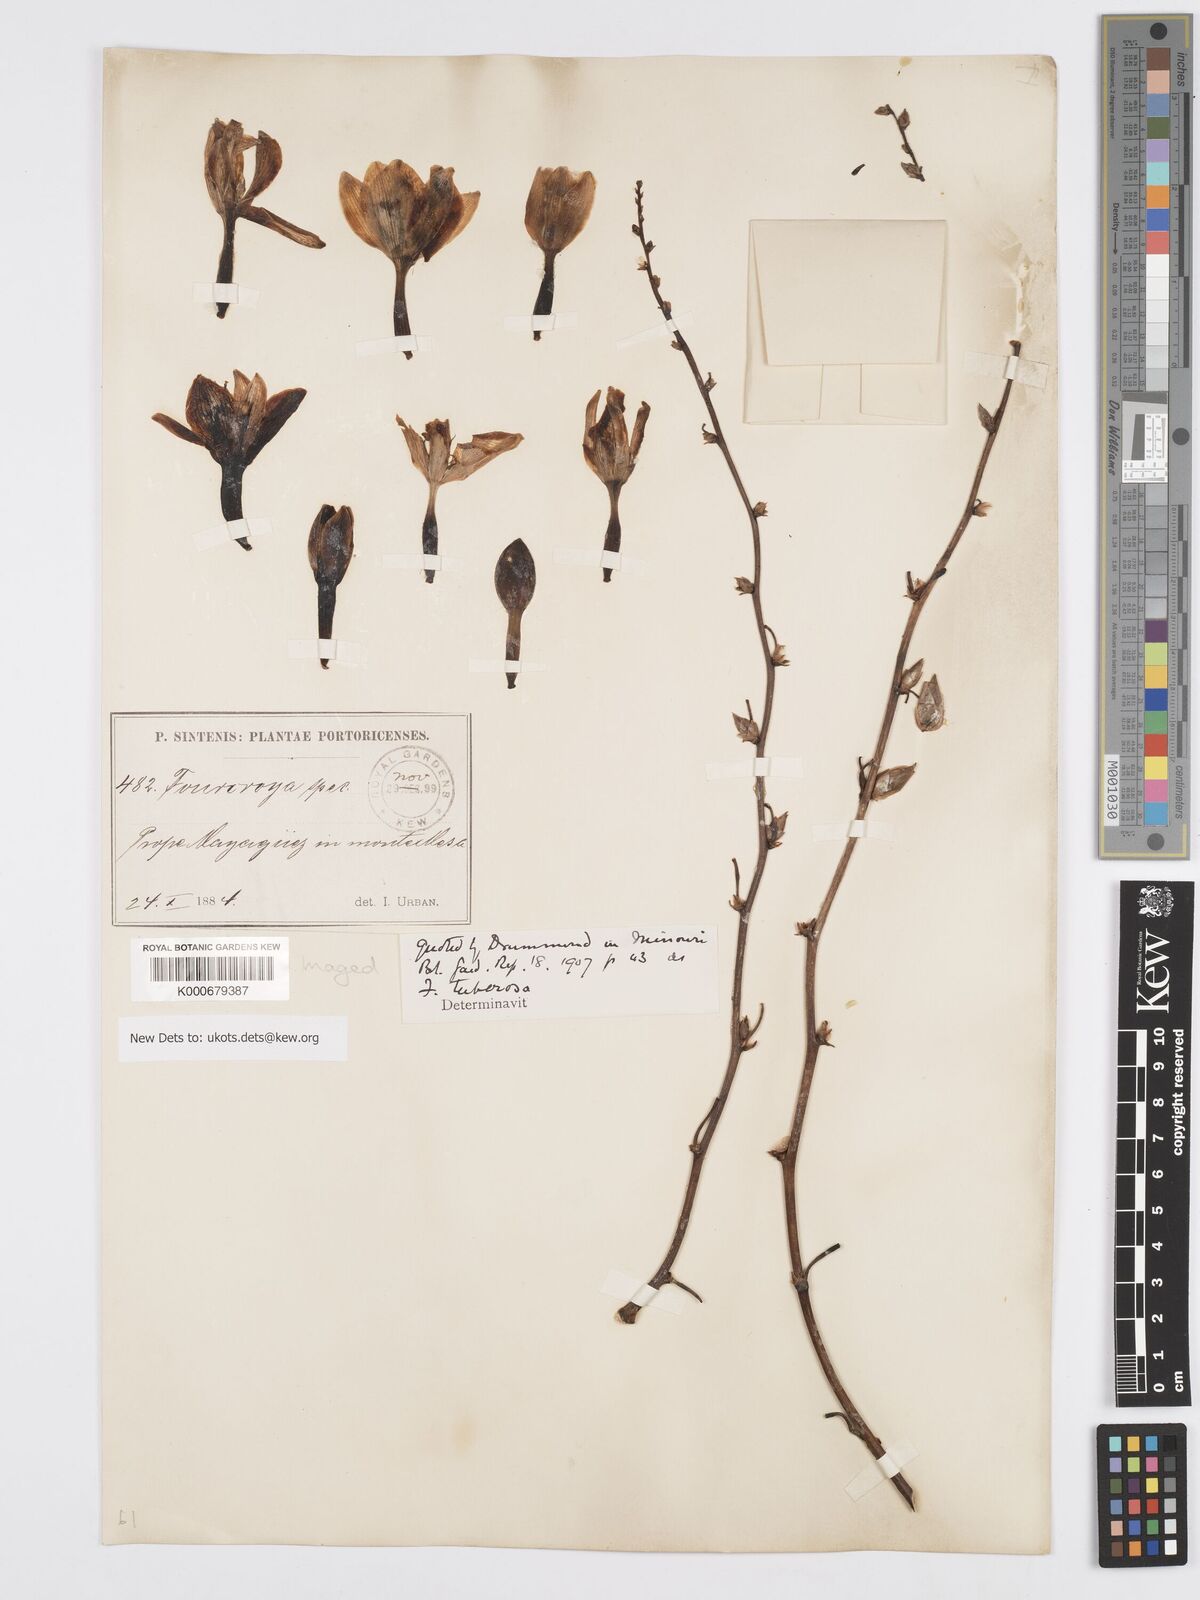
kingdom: Plantae
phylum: Tracheophyta
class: Liliopsida
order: Asparagales
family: Asparagaceae
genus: Furcraea
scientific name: Furcraea tuberosa
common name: Karata
